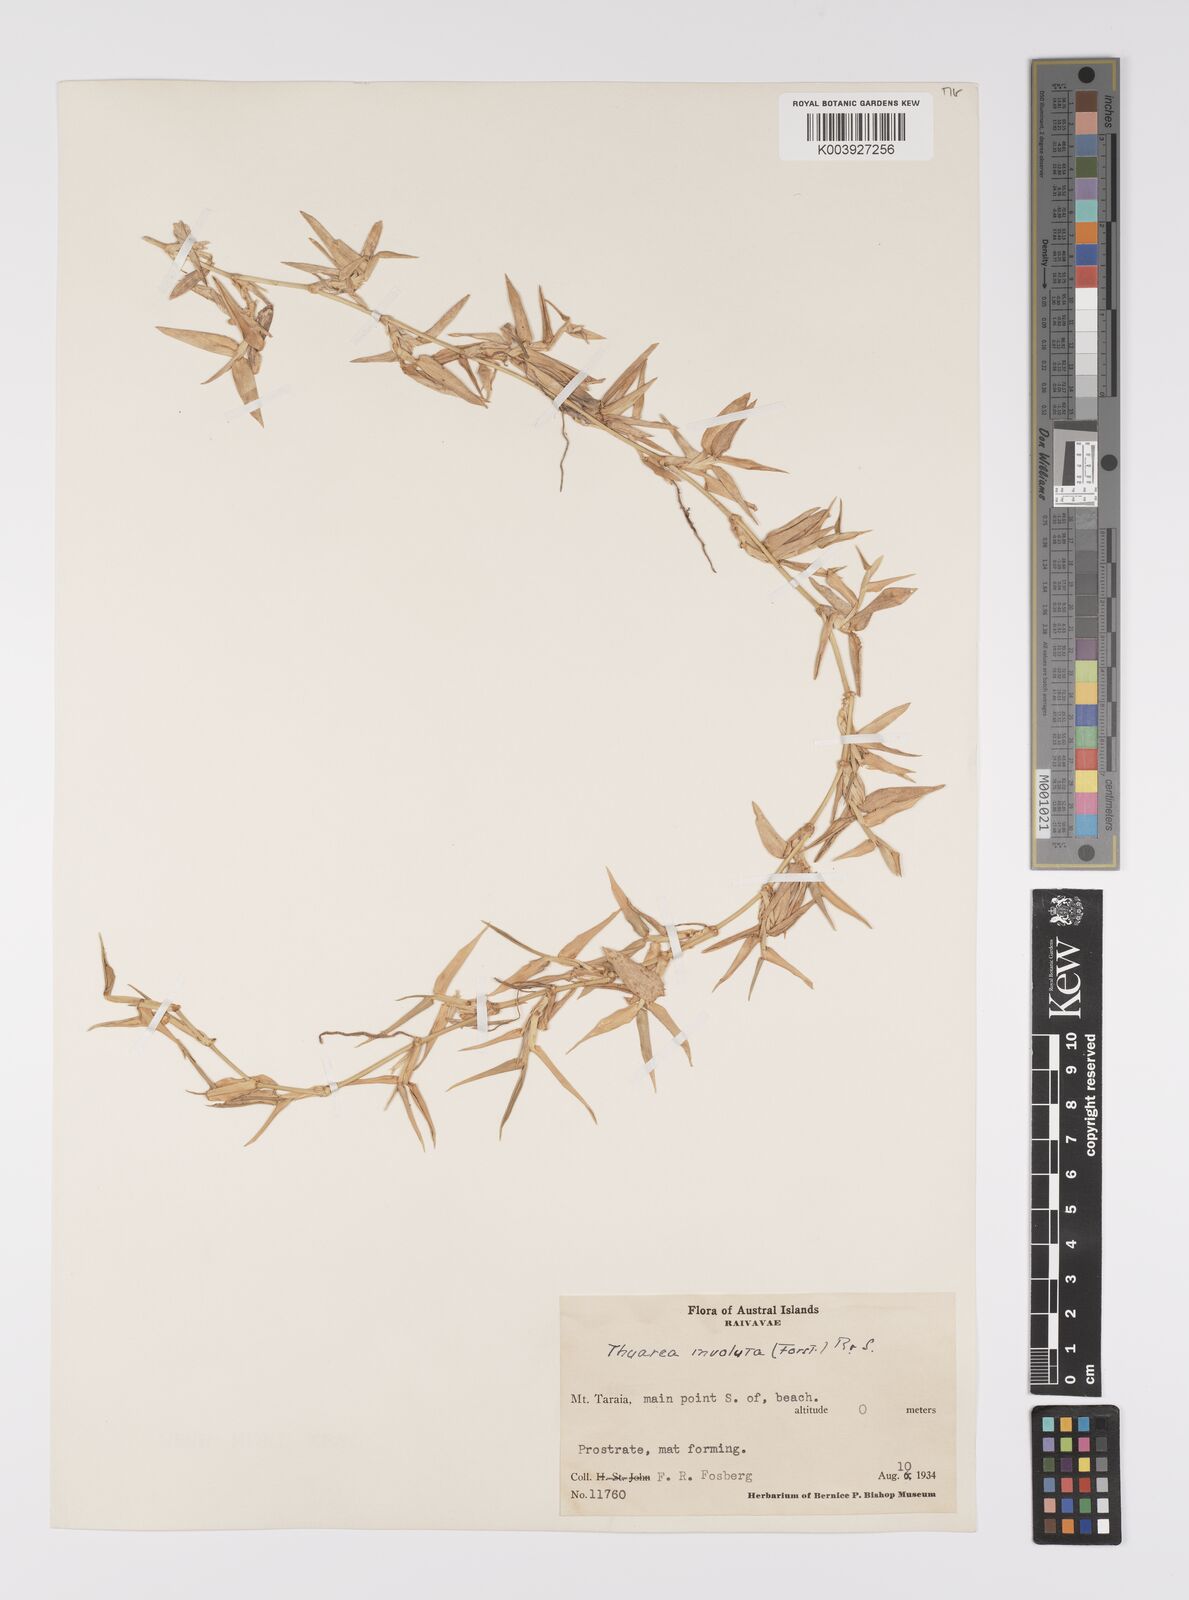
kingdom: Plantae
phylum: Tracheophyta
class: Liliopsida
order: Poales
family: Poaceae
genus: Thuarea
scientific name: Thuarea involuta
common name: Tropical beach grass
